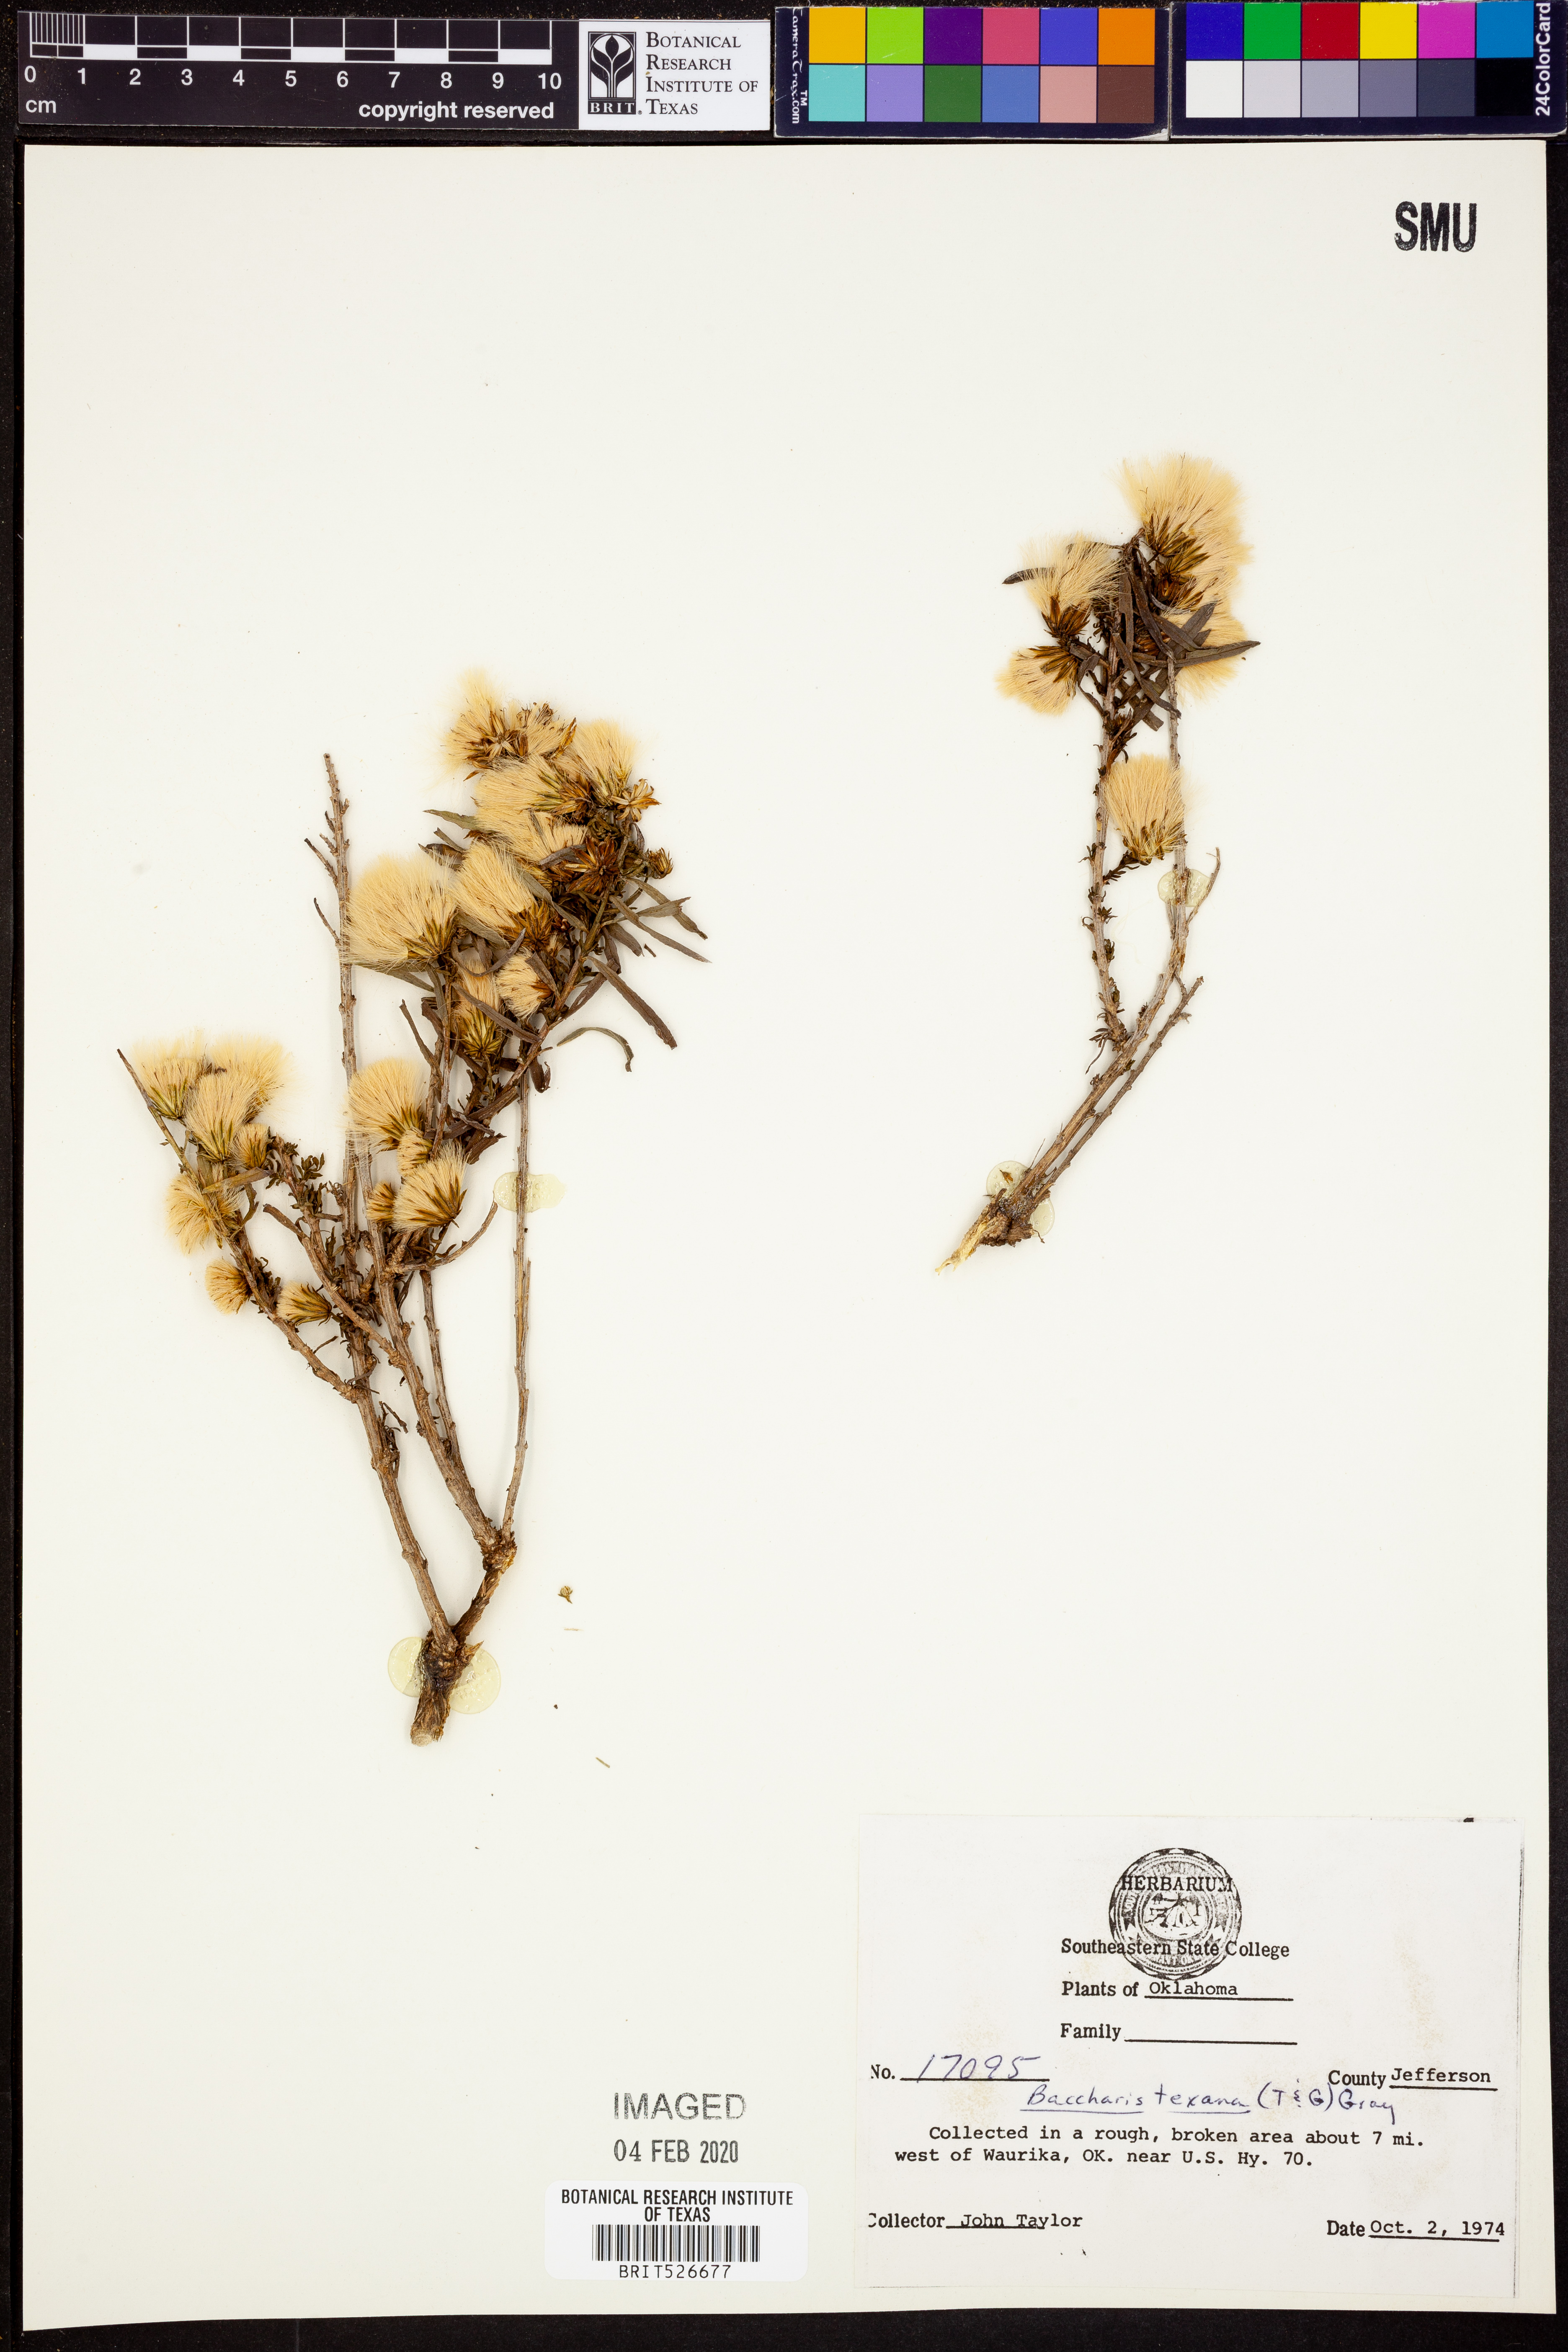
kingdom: Plantae
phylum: Tracheophyta
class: Magnoliopsida
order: Asterales
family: Asteraceae
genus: Baccharis
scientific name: Baccharis texana
